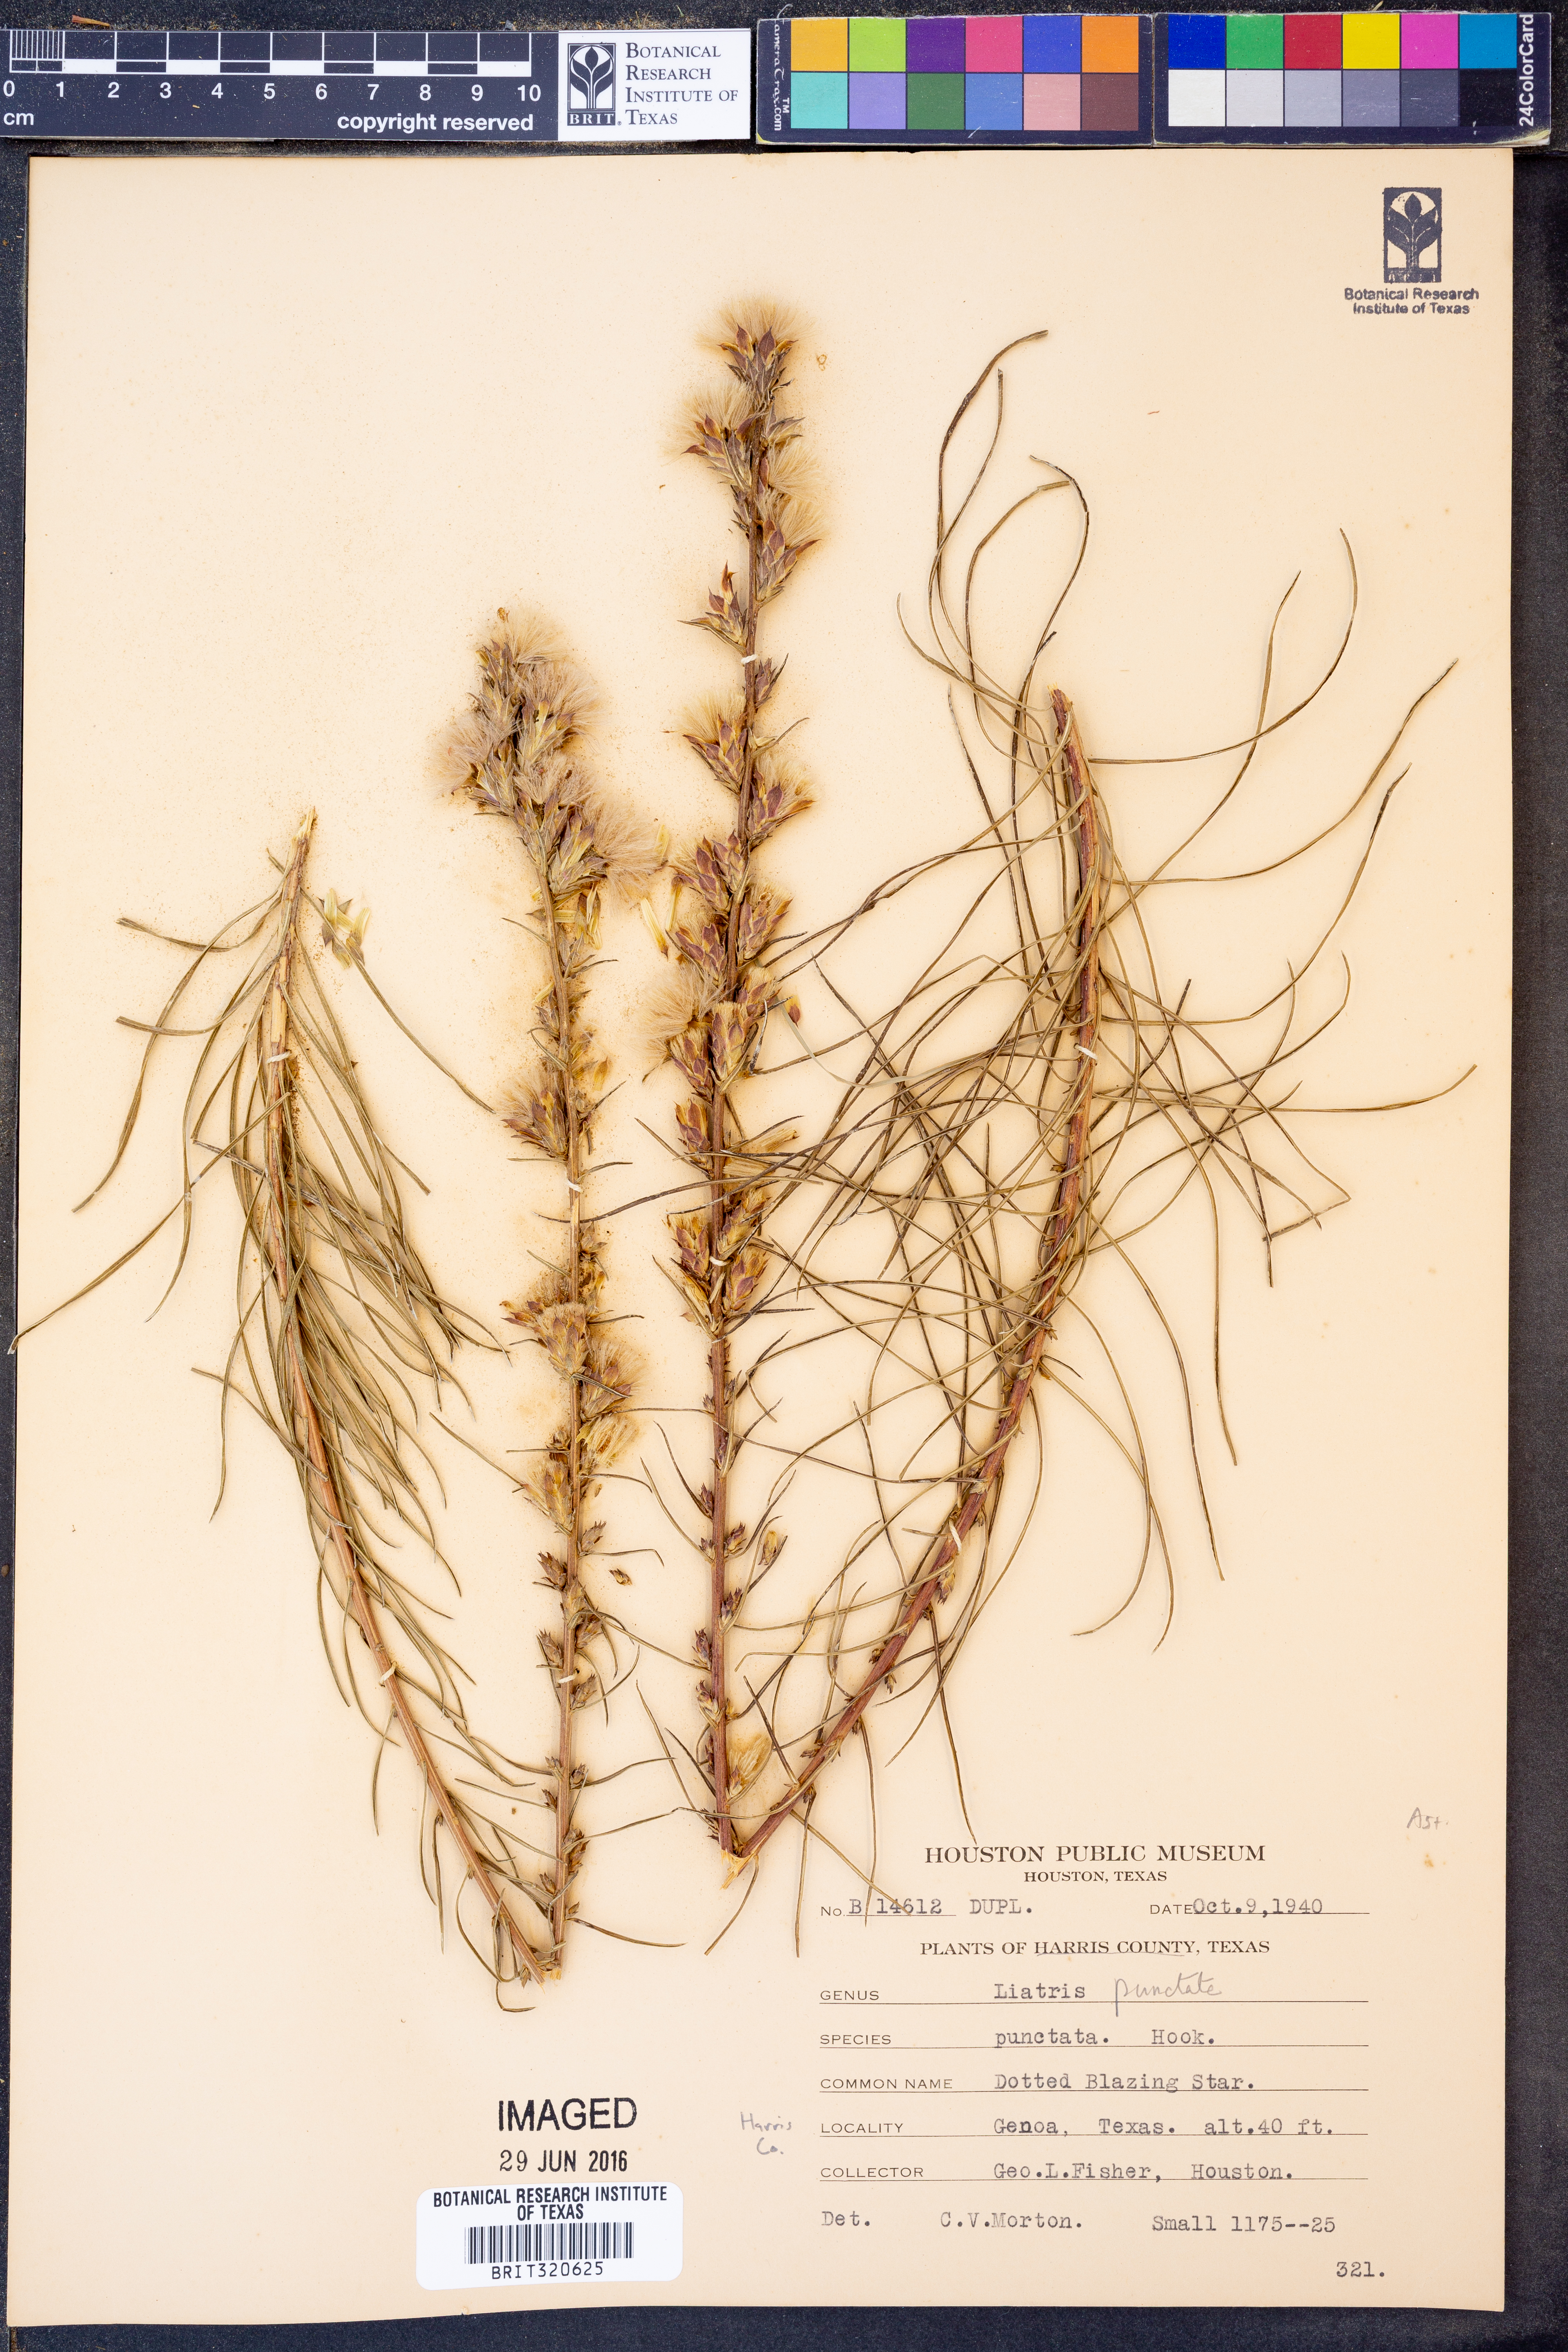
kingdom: Plantae
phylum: Tracheophyta
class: Magnoliopsida
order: Asterales
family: Asteraceae
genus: Liatris
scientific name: Liatris punctata
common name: Dotted gayfeather
